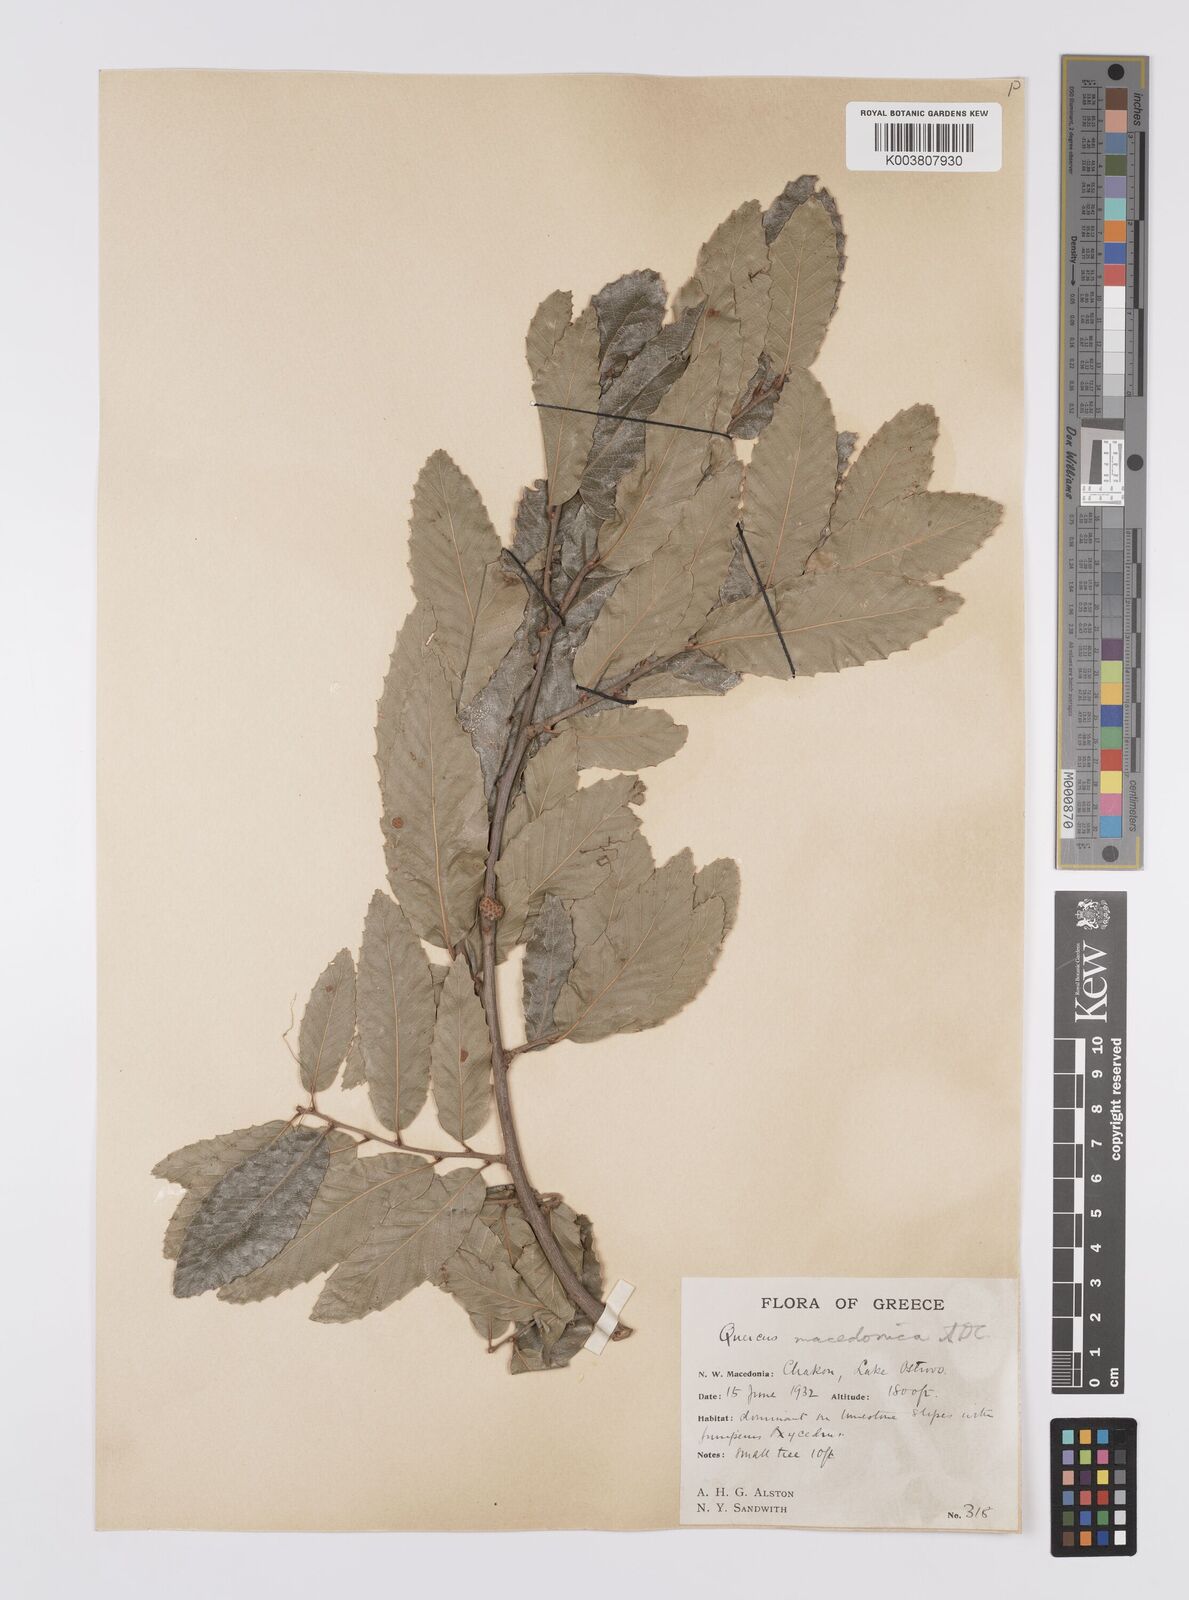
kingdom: Plantae
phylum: Tracheophyta
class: Magnoliopsida
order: Fagales
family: Fagaceae
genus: Quercus
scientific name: Quercus trojana
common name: Macedonian oak
